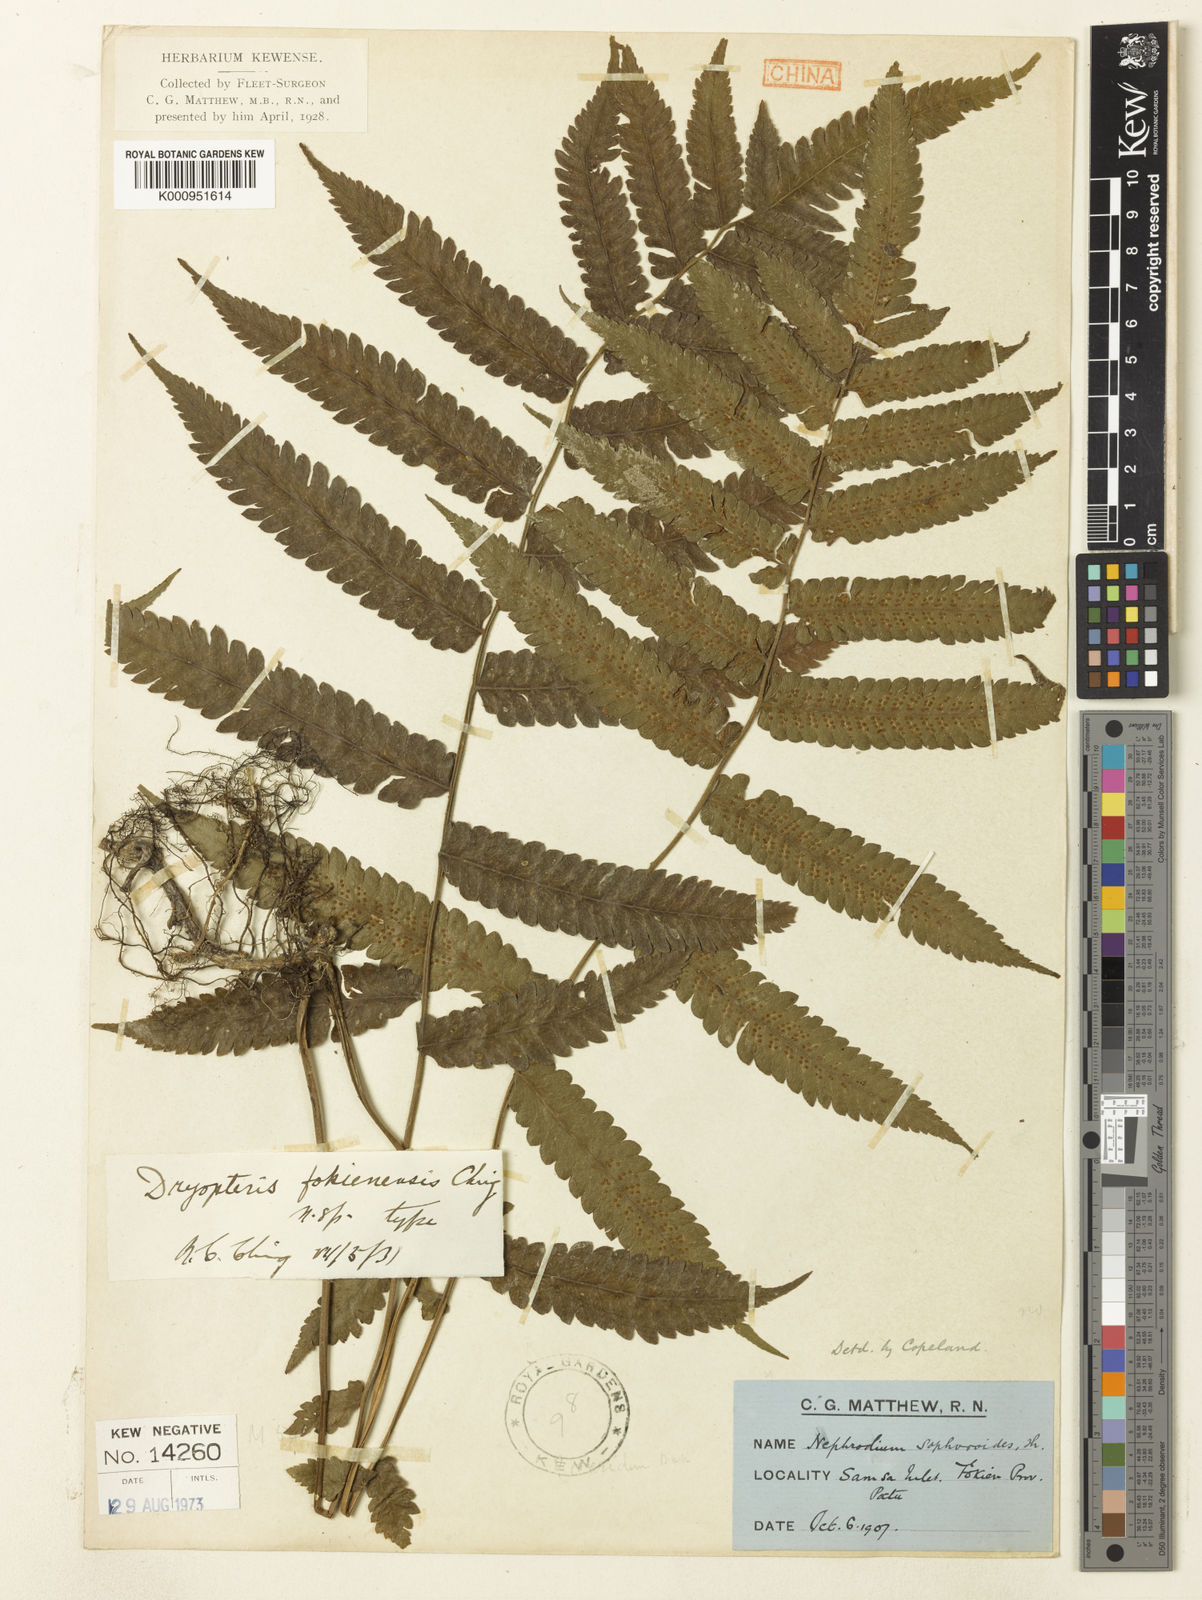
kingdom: Plantae
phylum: Tracheophyta
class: Polypodiopsida
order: Polypodiales
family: Thelypteridaceae
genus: Christella
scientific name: Christella fukienensis
